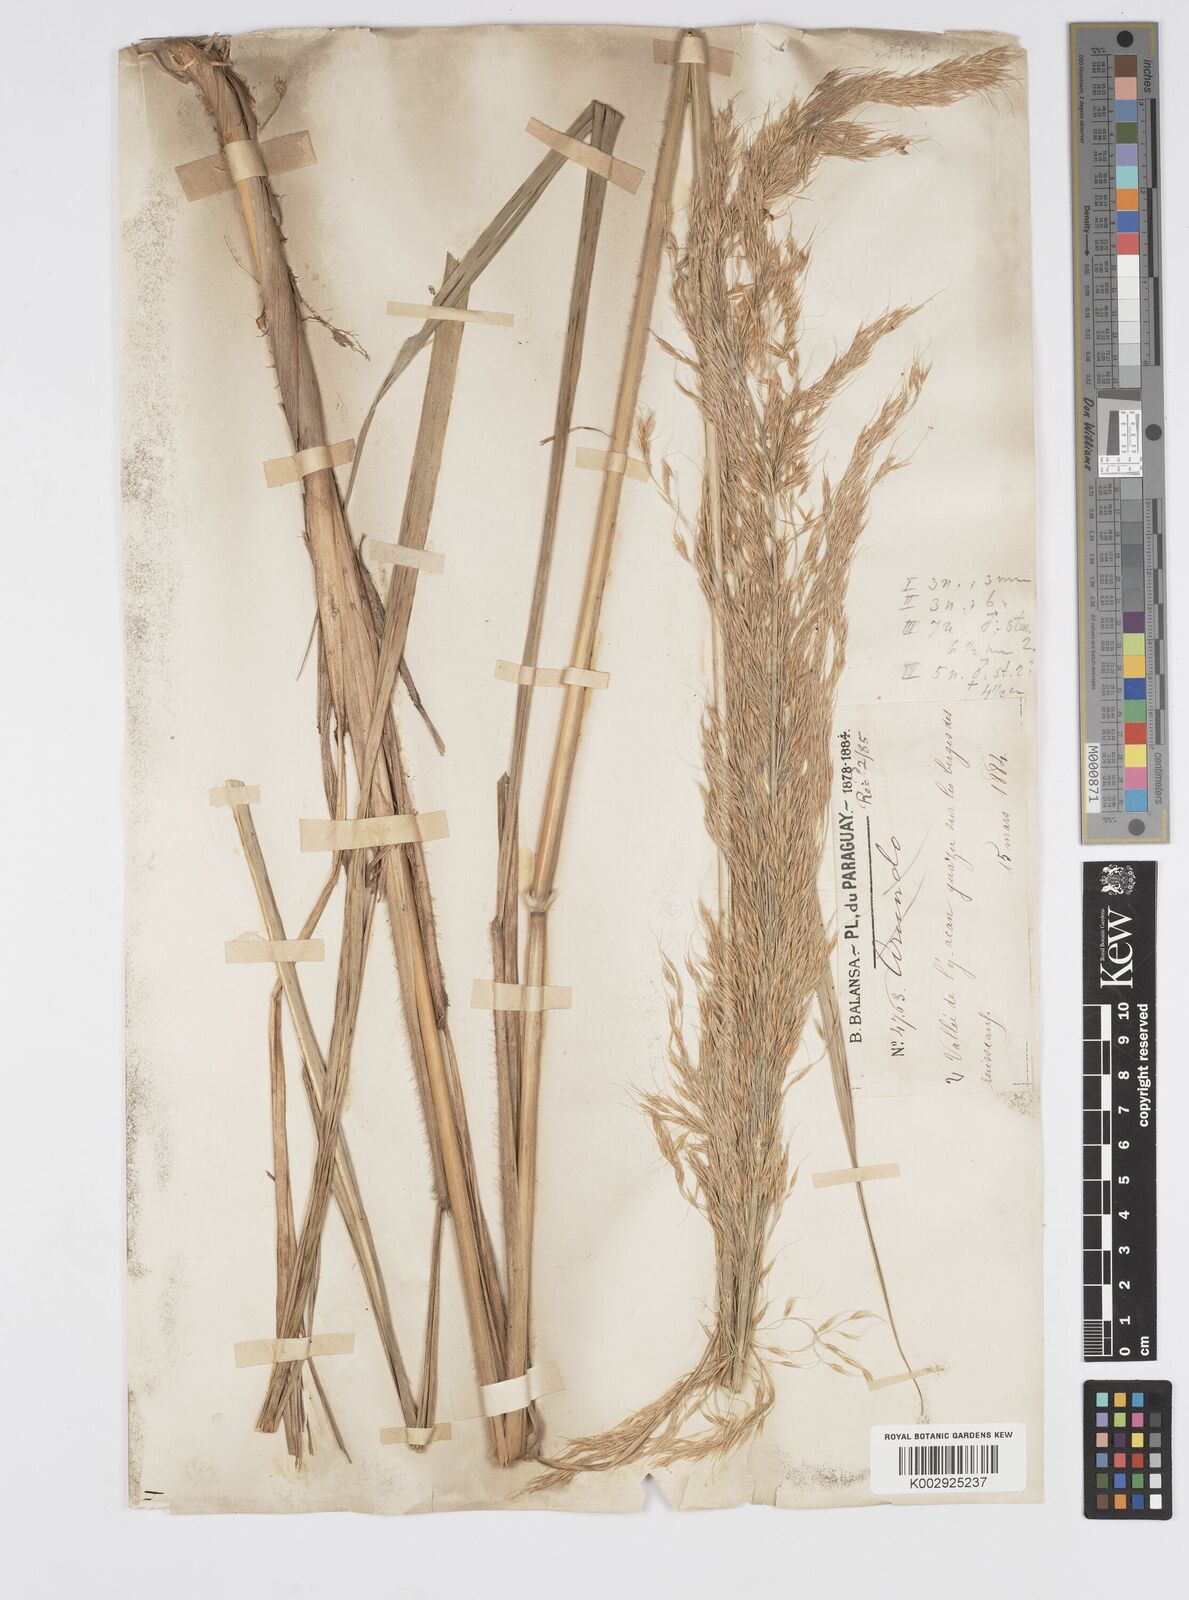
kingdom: Plantae
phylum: Tracheophyta
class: Liliopsida
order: Poales
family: Poaceae
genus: Loudetia
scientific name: Loudetia flammida
